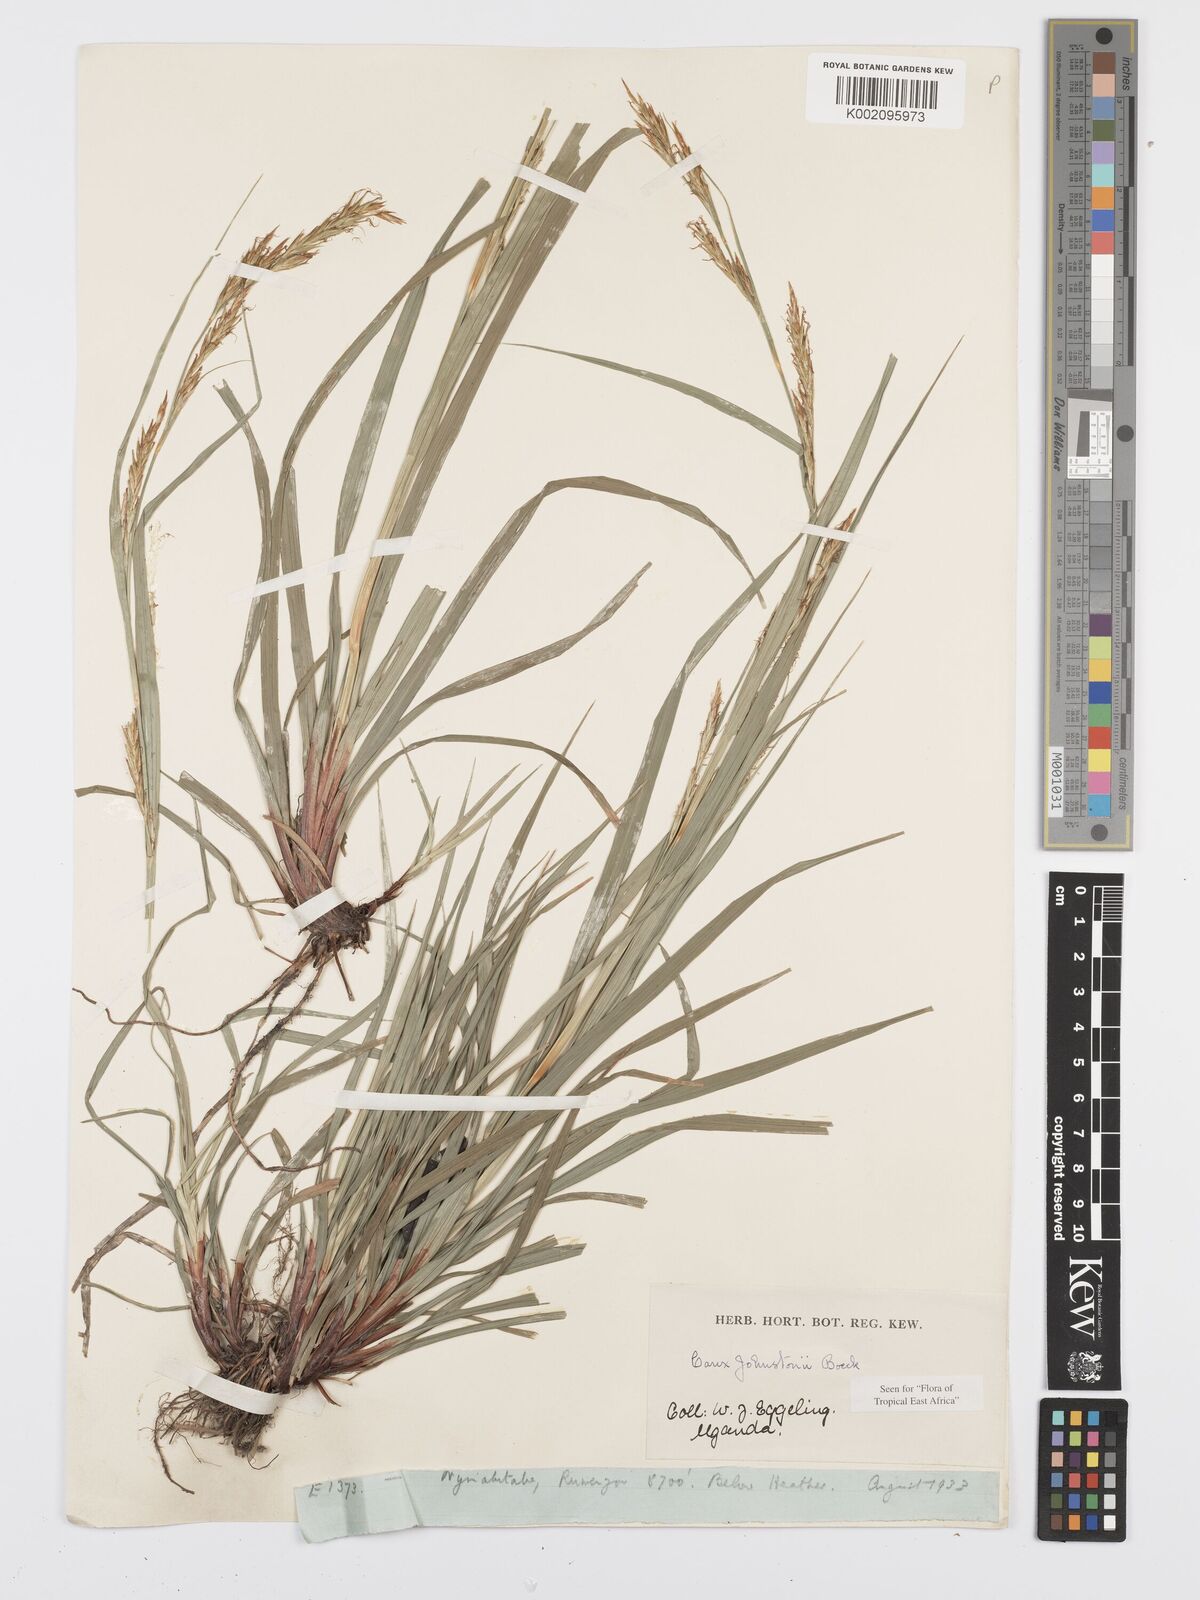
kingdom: Plantae
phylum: Tracheophyta
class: Liliopsida
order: Poales
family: Cyperaceae
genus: Carex
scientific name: Carex johnstonii
